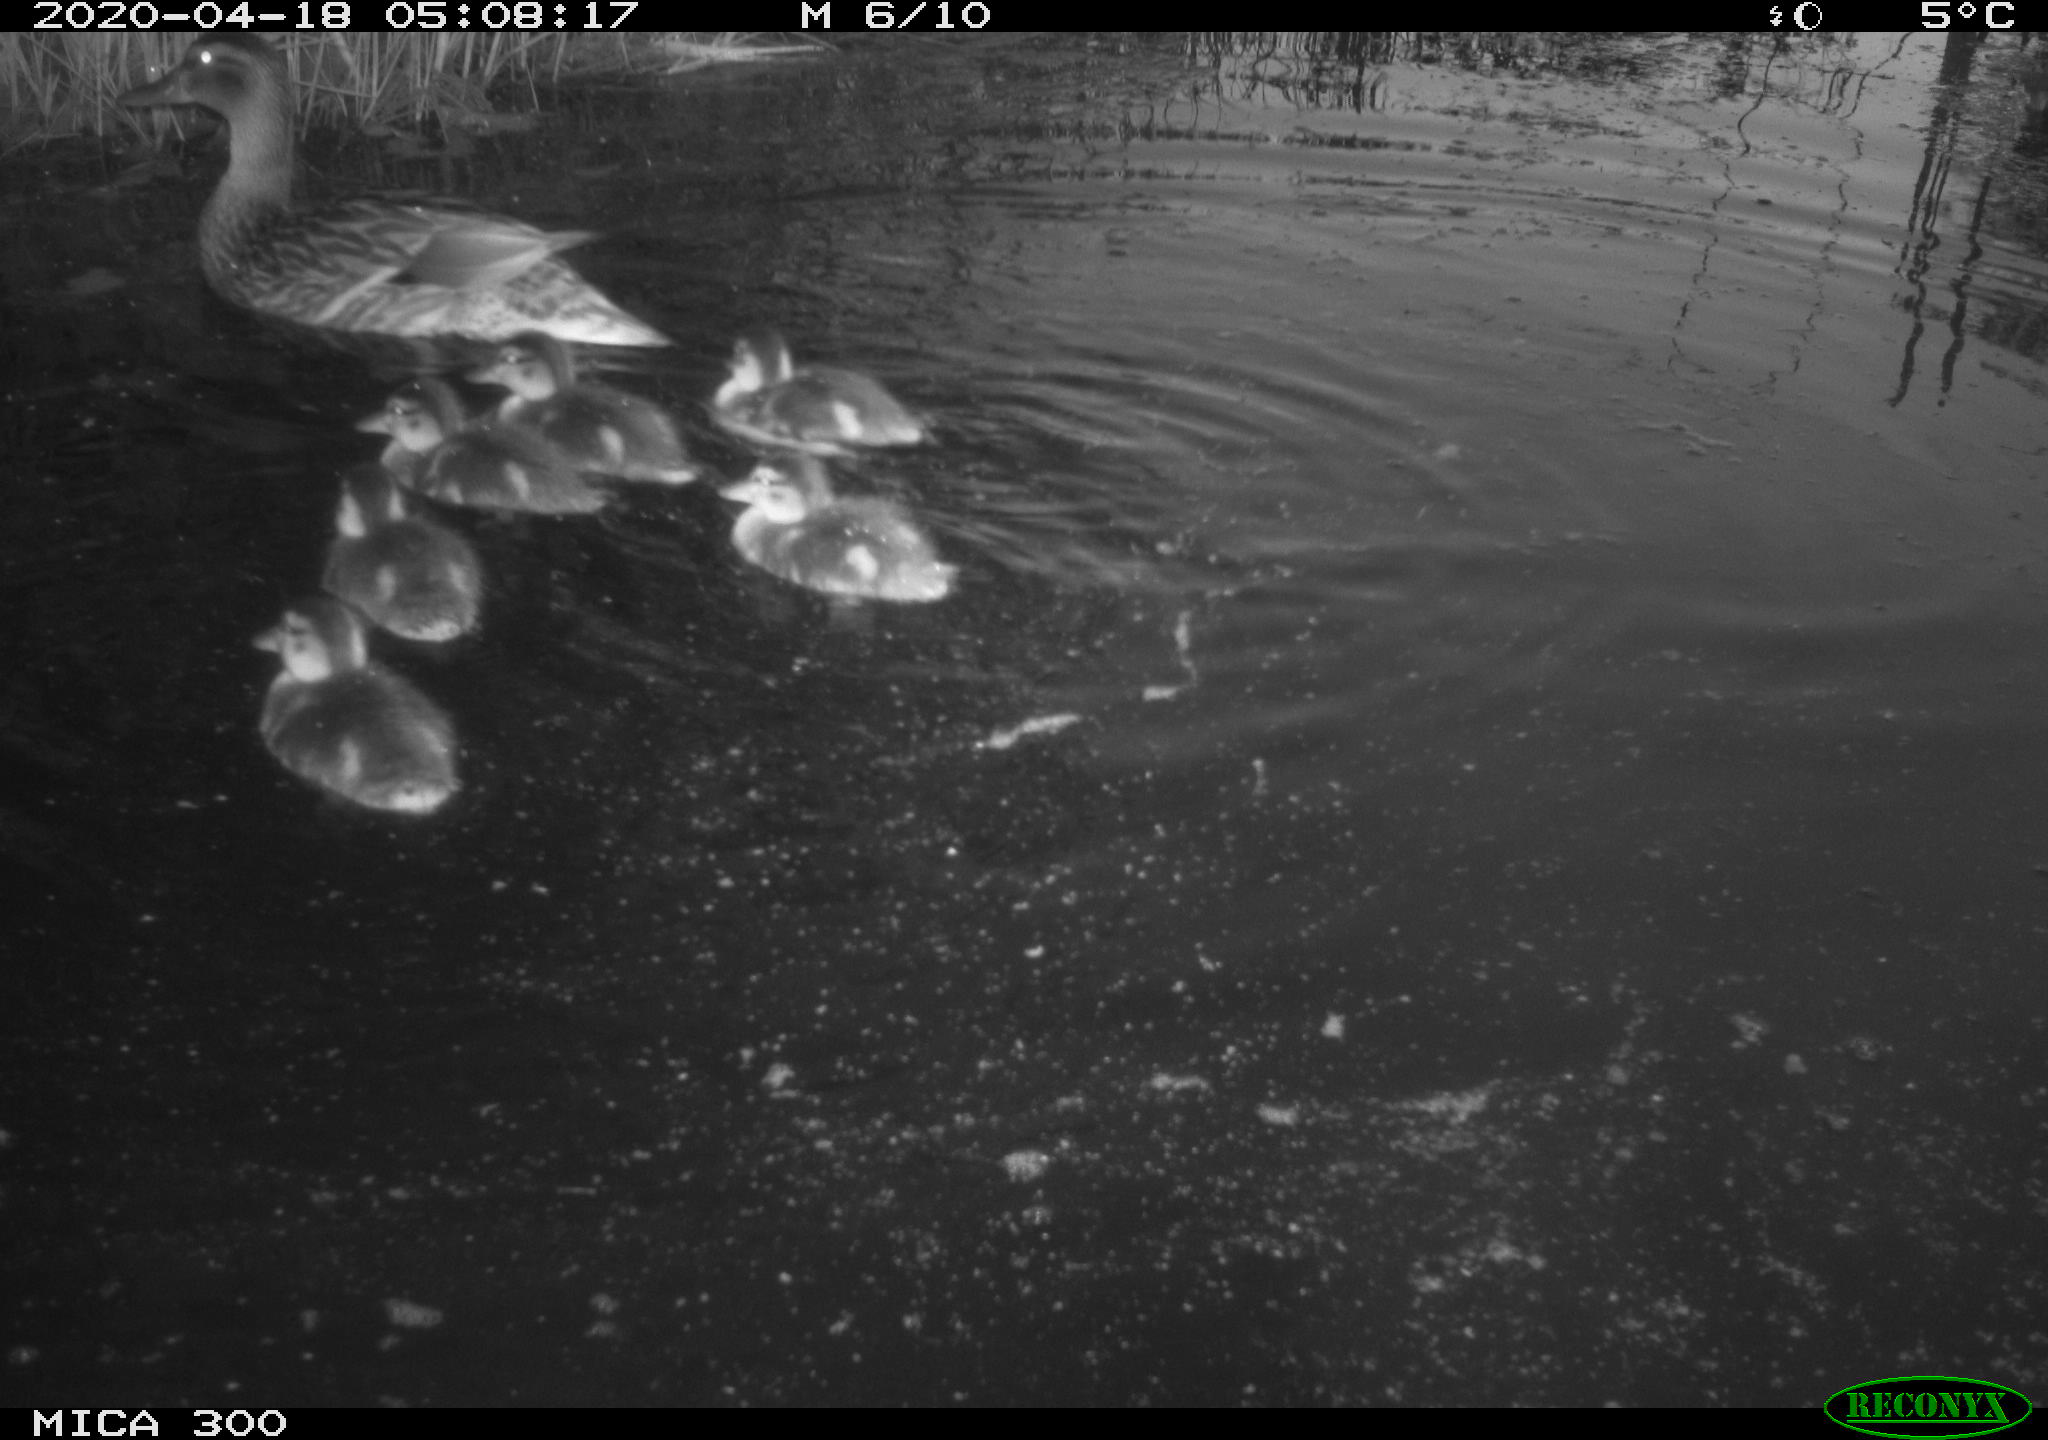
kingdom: Animalia
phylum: Chordata
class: Aves
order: Anseriformes
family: Anatidae
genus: Anas
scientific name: Anas platyrhynchos
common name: Mallard
